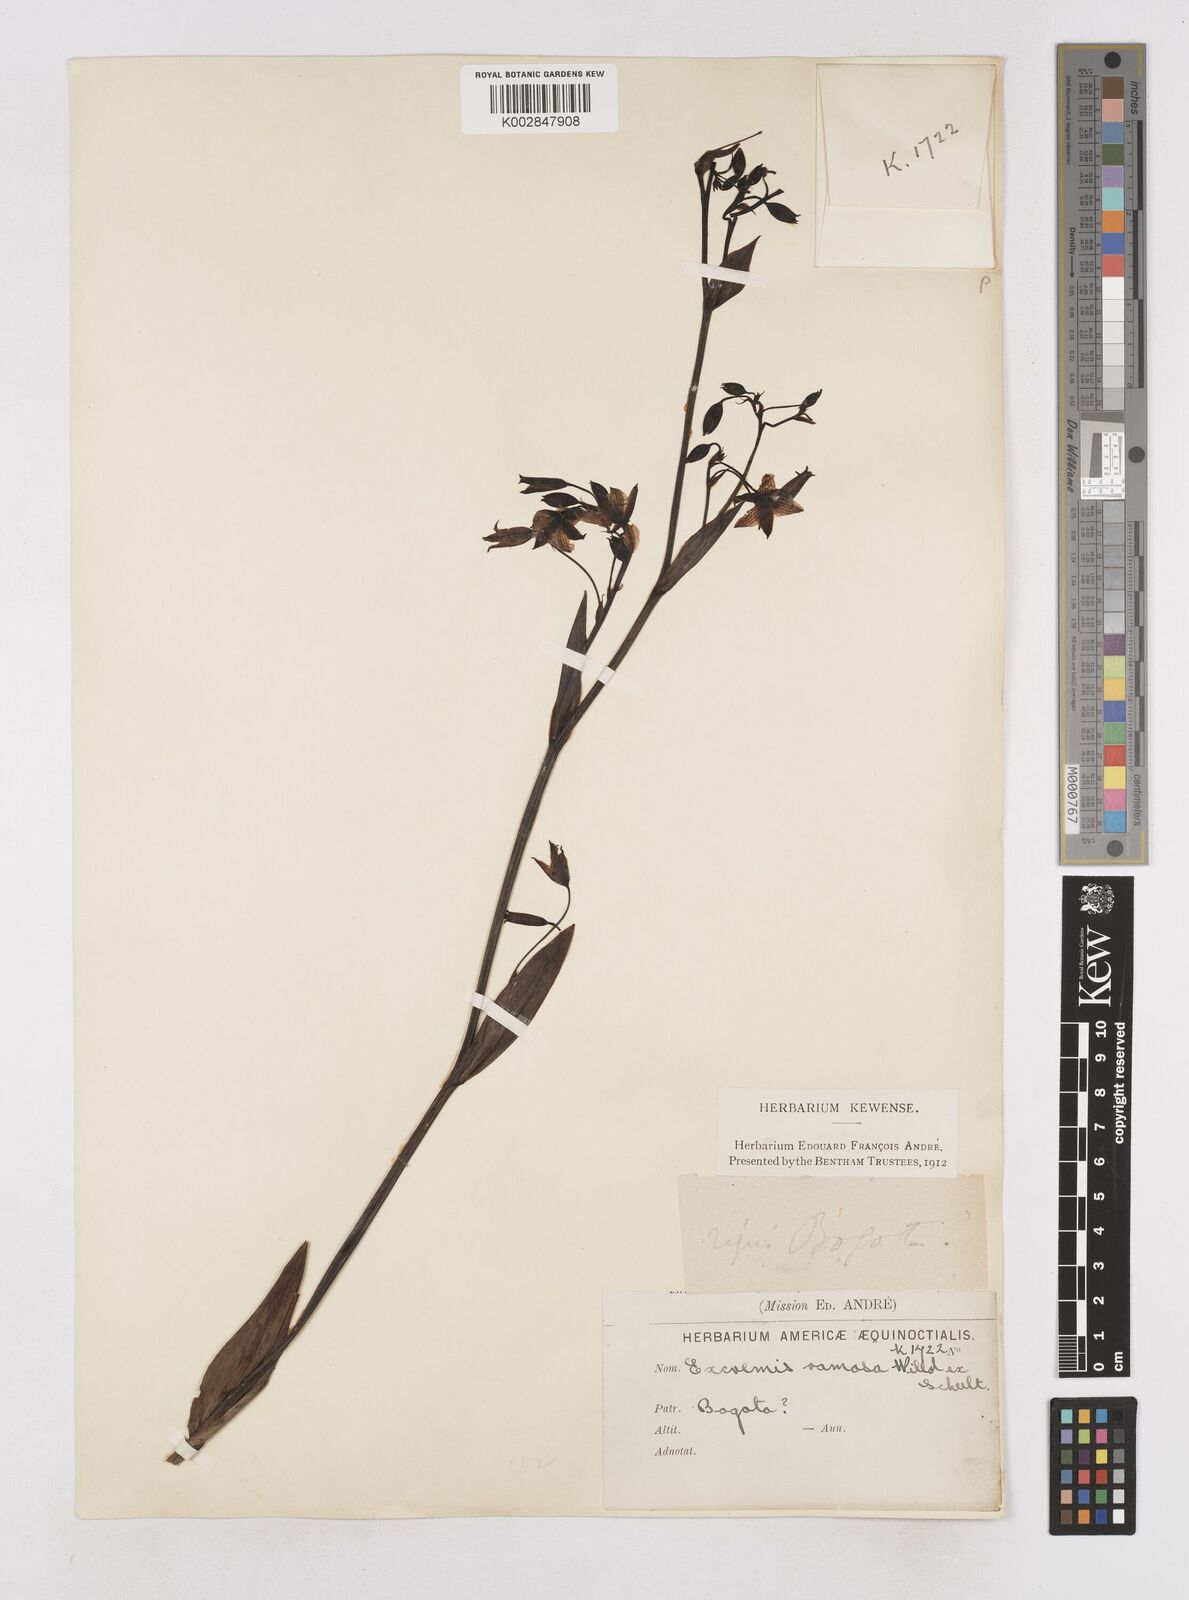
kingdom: Plantae
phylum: Tracheophyta
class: Liliopsida
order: Asparagales
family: Asphodelaceae
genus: Excremis
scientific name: Excremis coarctata
